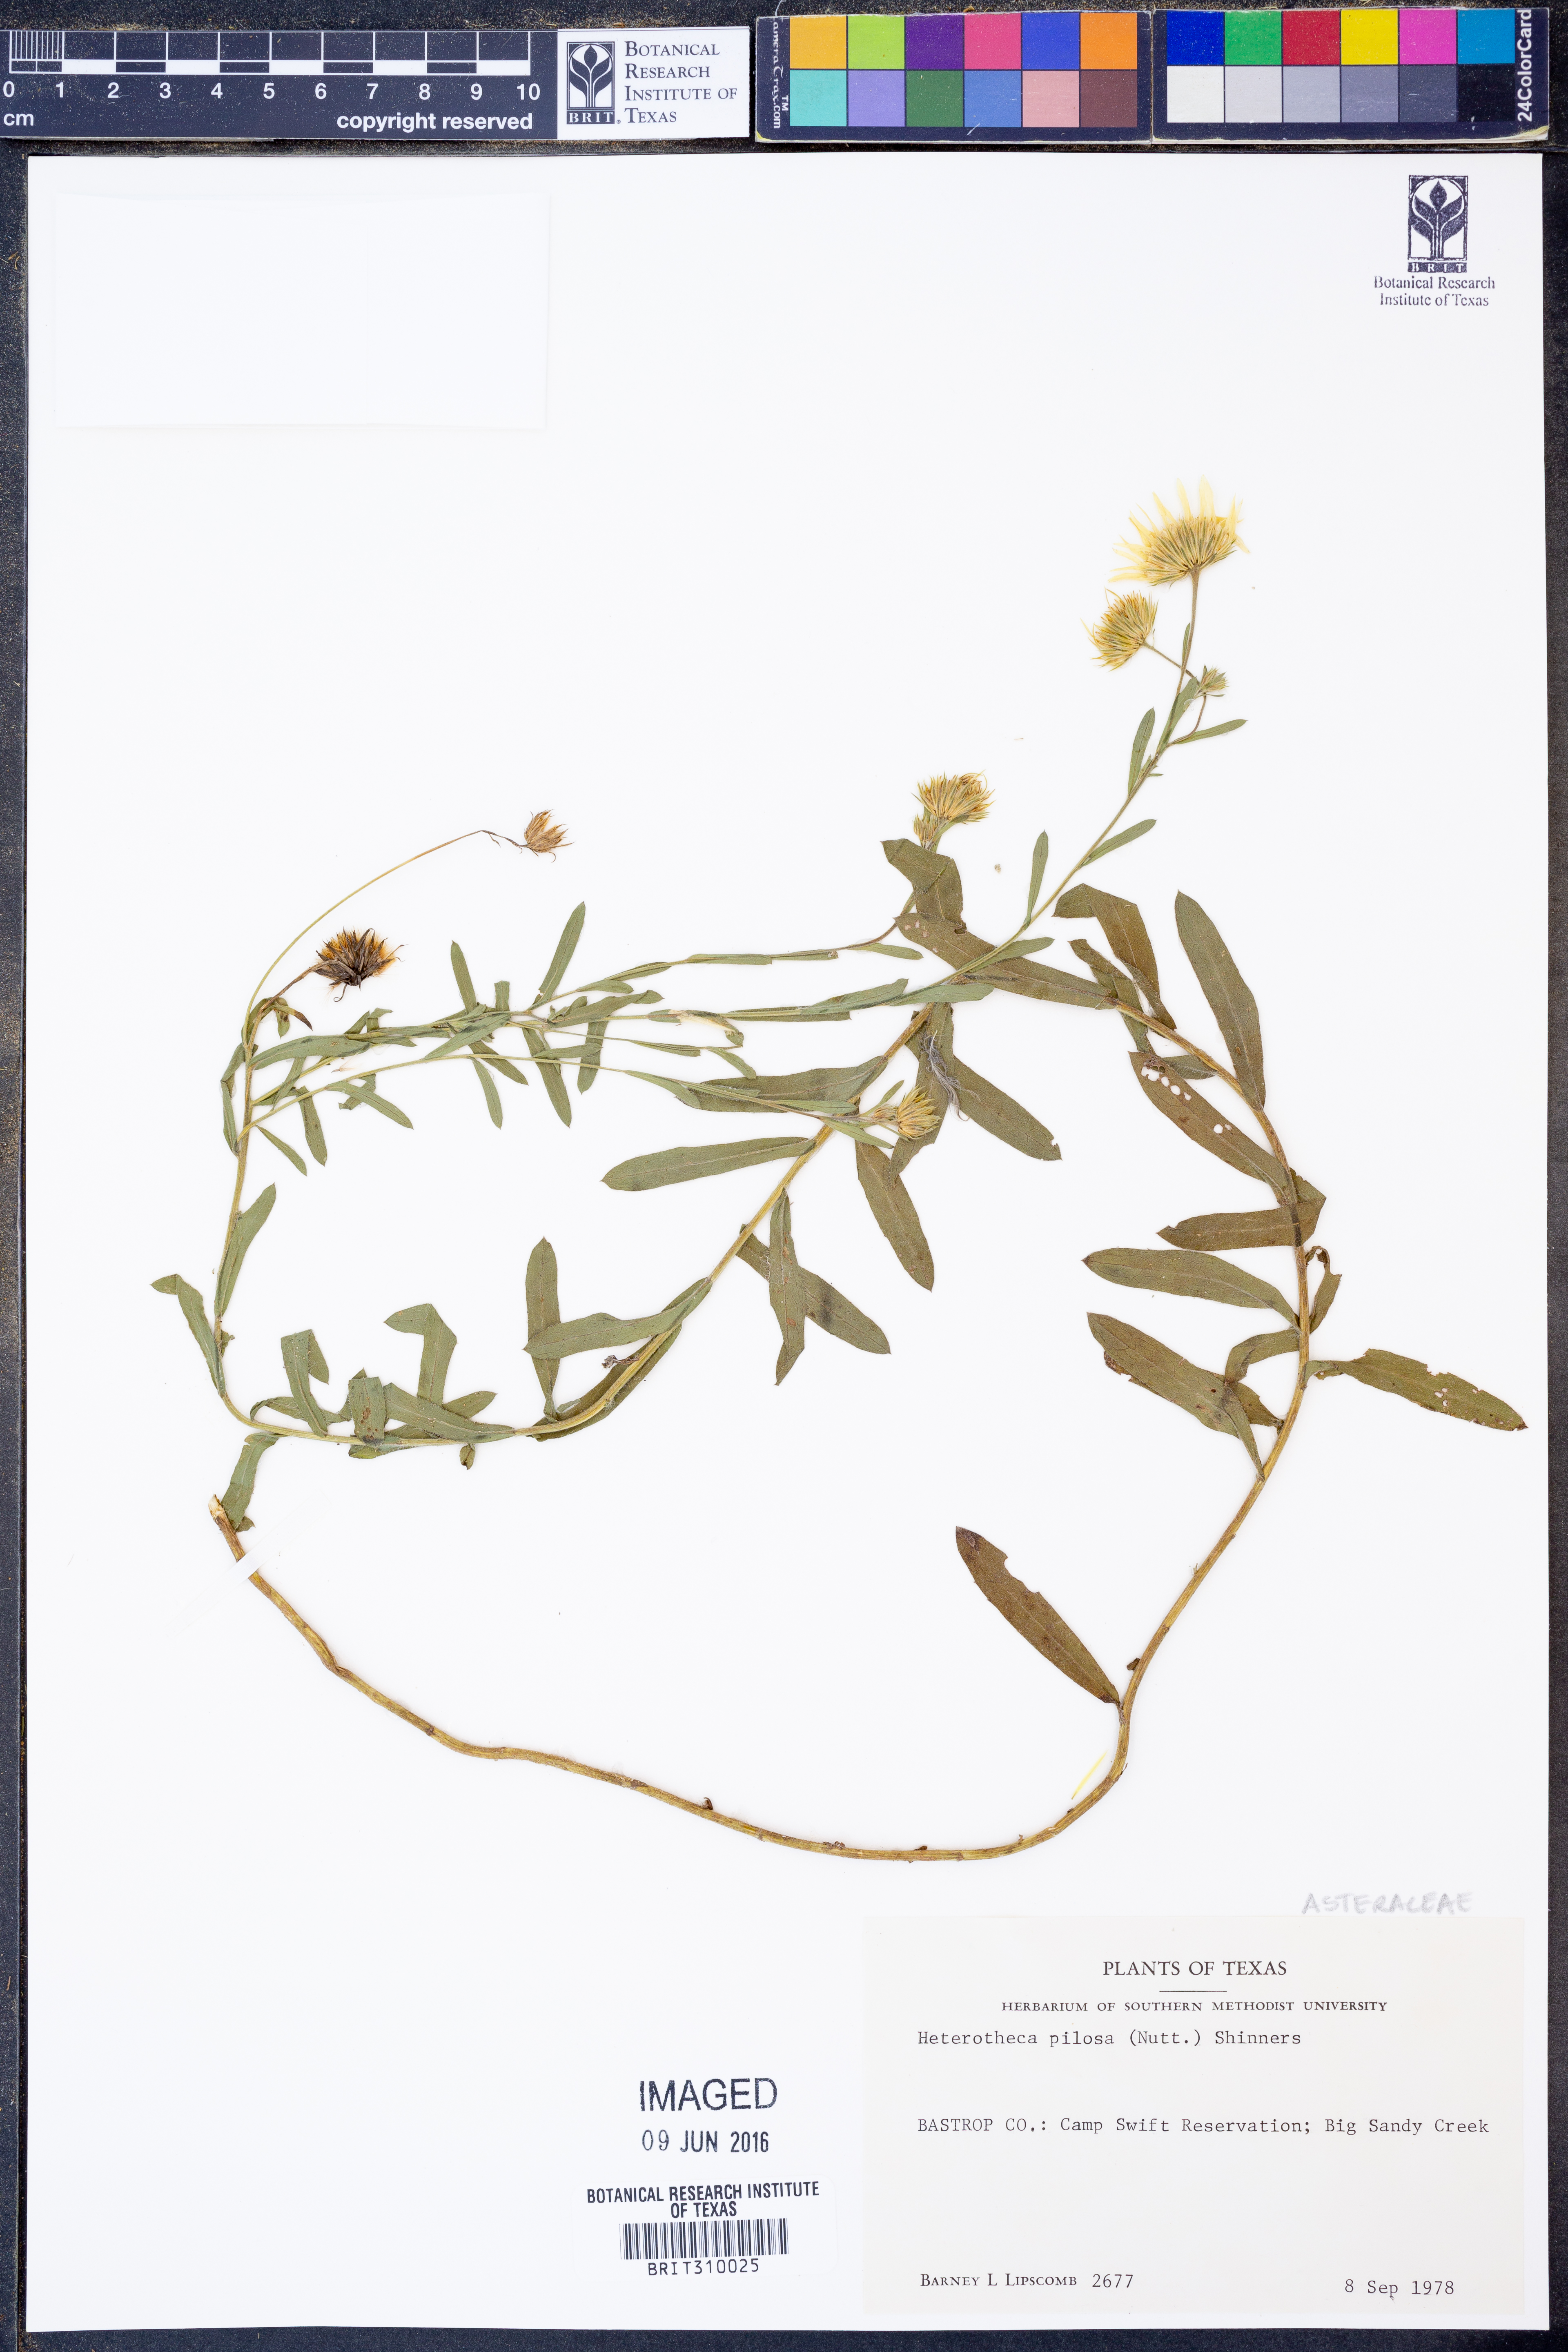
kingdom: Plantae
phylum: Tracheophyta
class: Magnoliopsida
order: Asterales
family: Asteraceae
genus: Bradburia
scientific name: Bradburia pilosa
